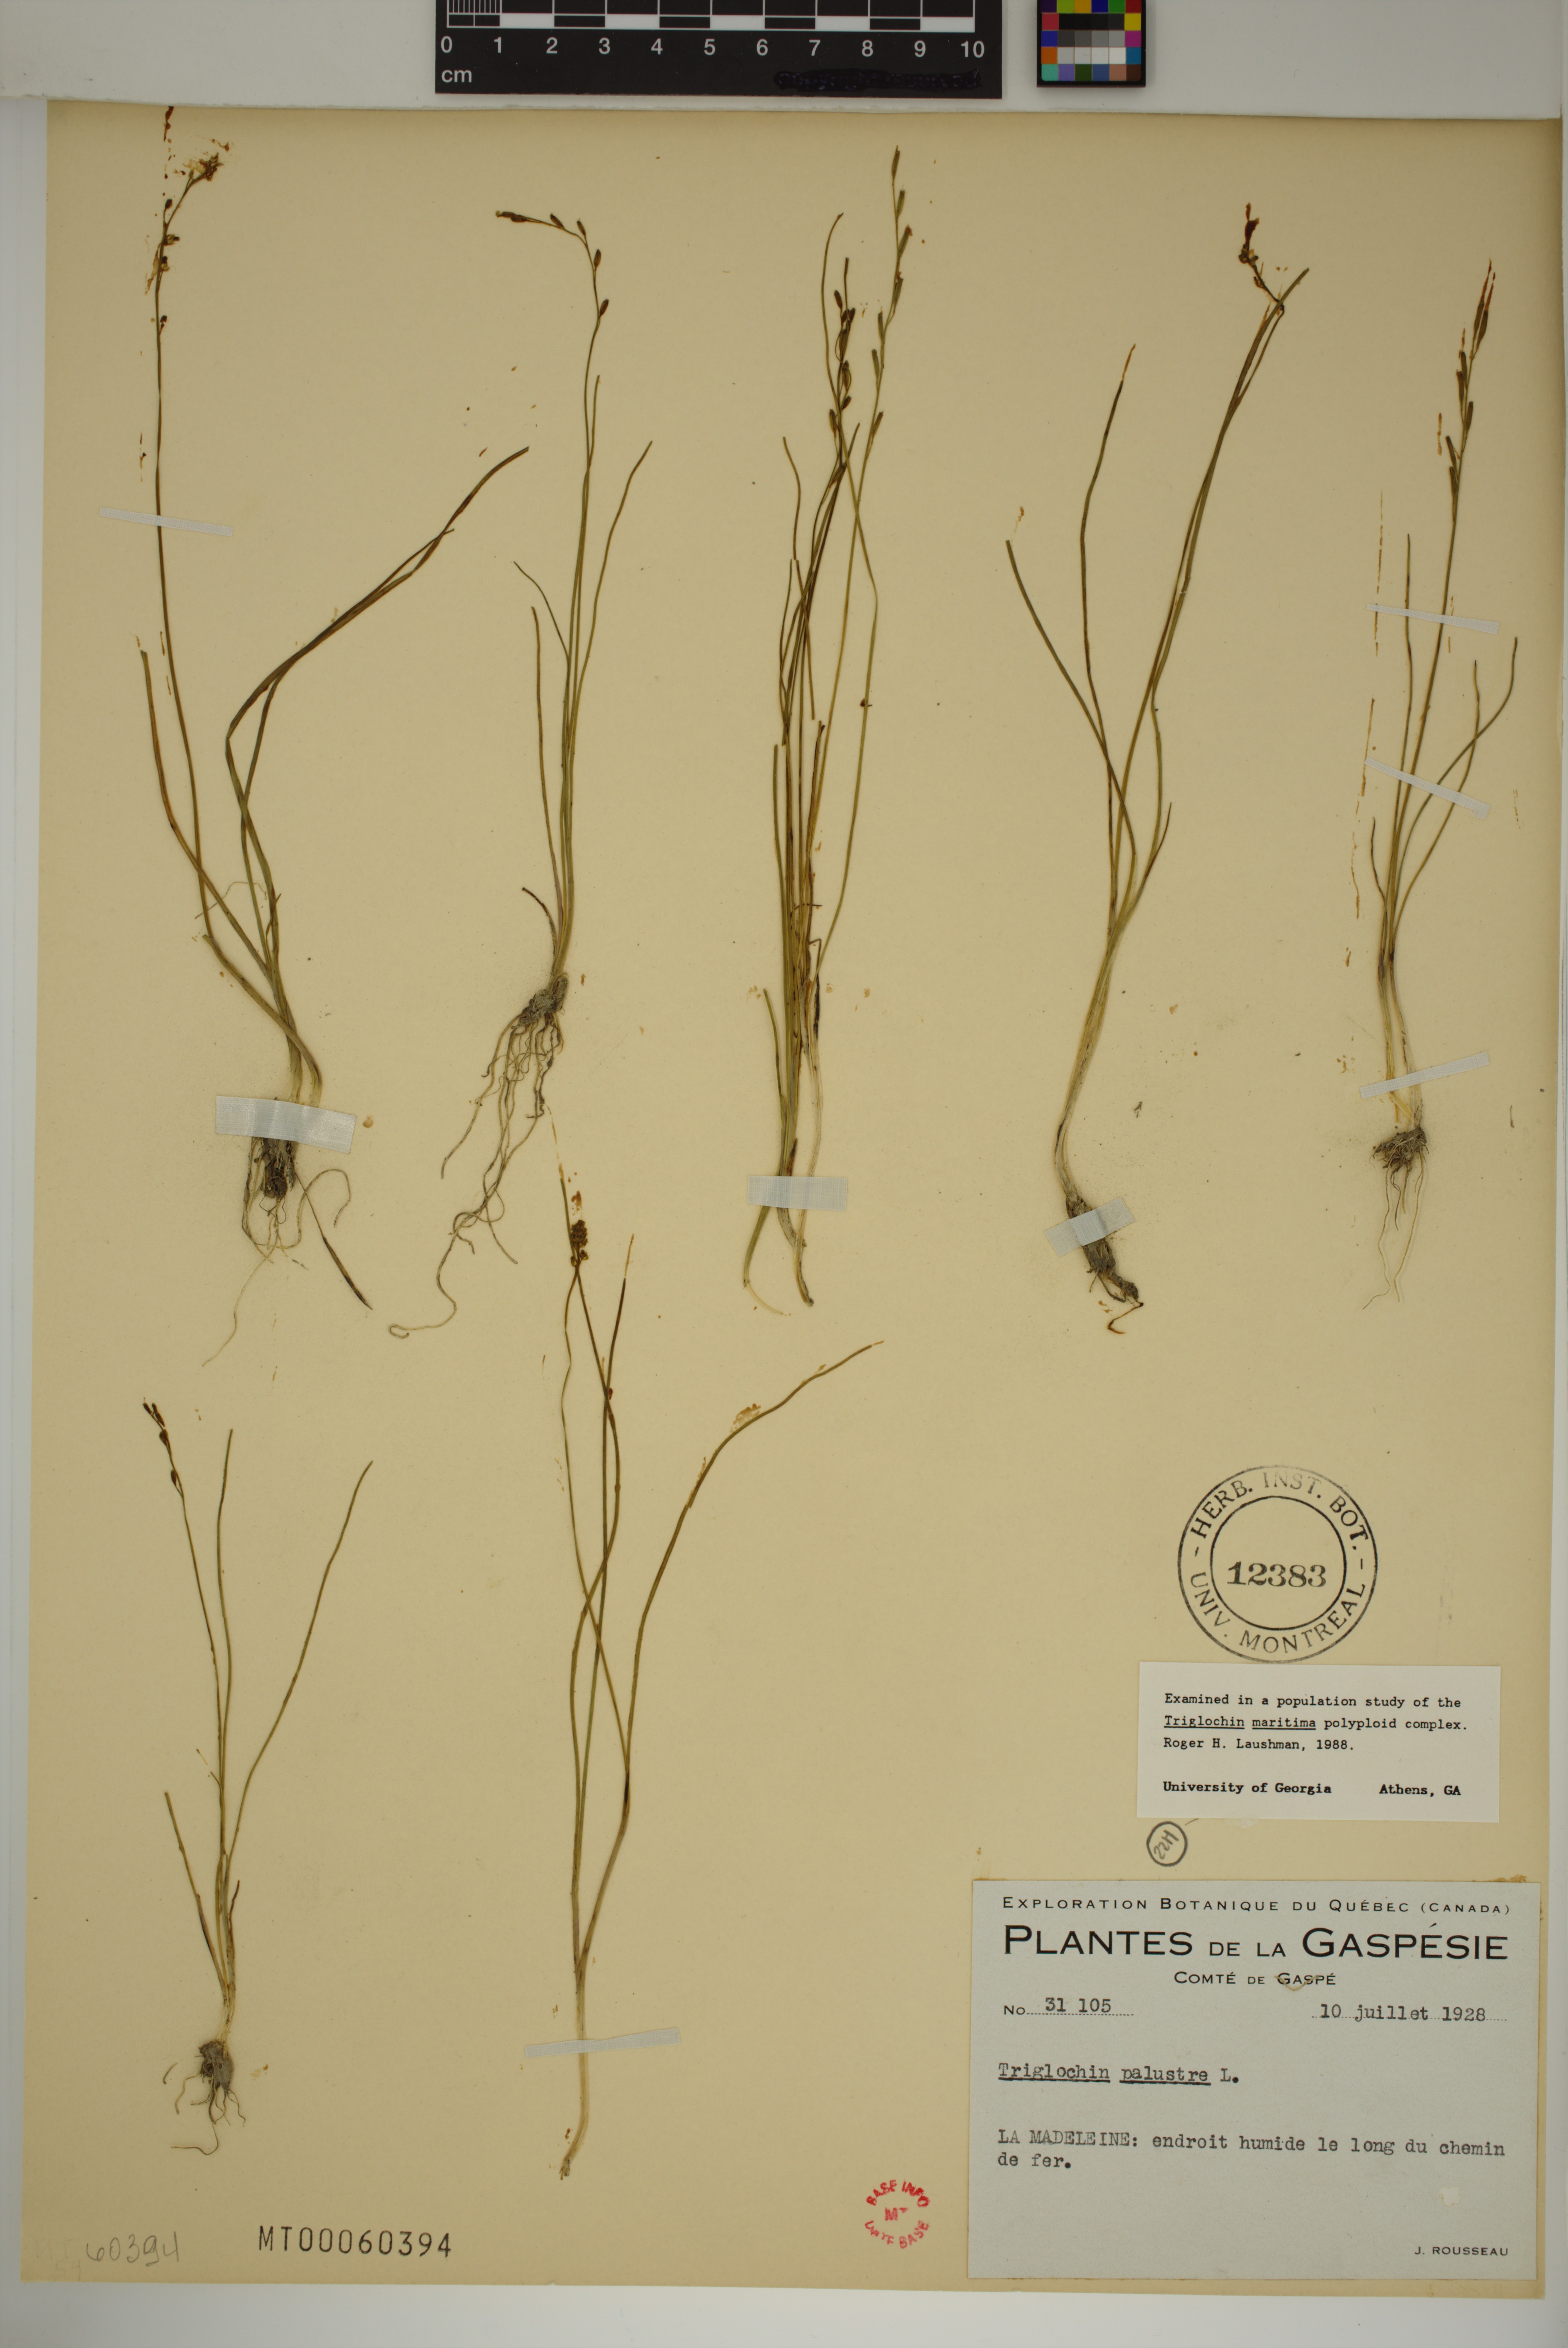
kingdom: Plantae
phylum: Tracheophyta
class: Liliopsida
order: Alismatales
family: Juncaginaceae
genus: Triglochin
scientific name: Triglochin palustris
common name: Marsh arrowgrass
